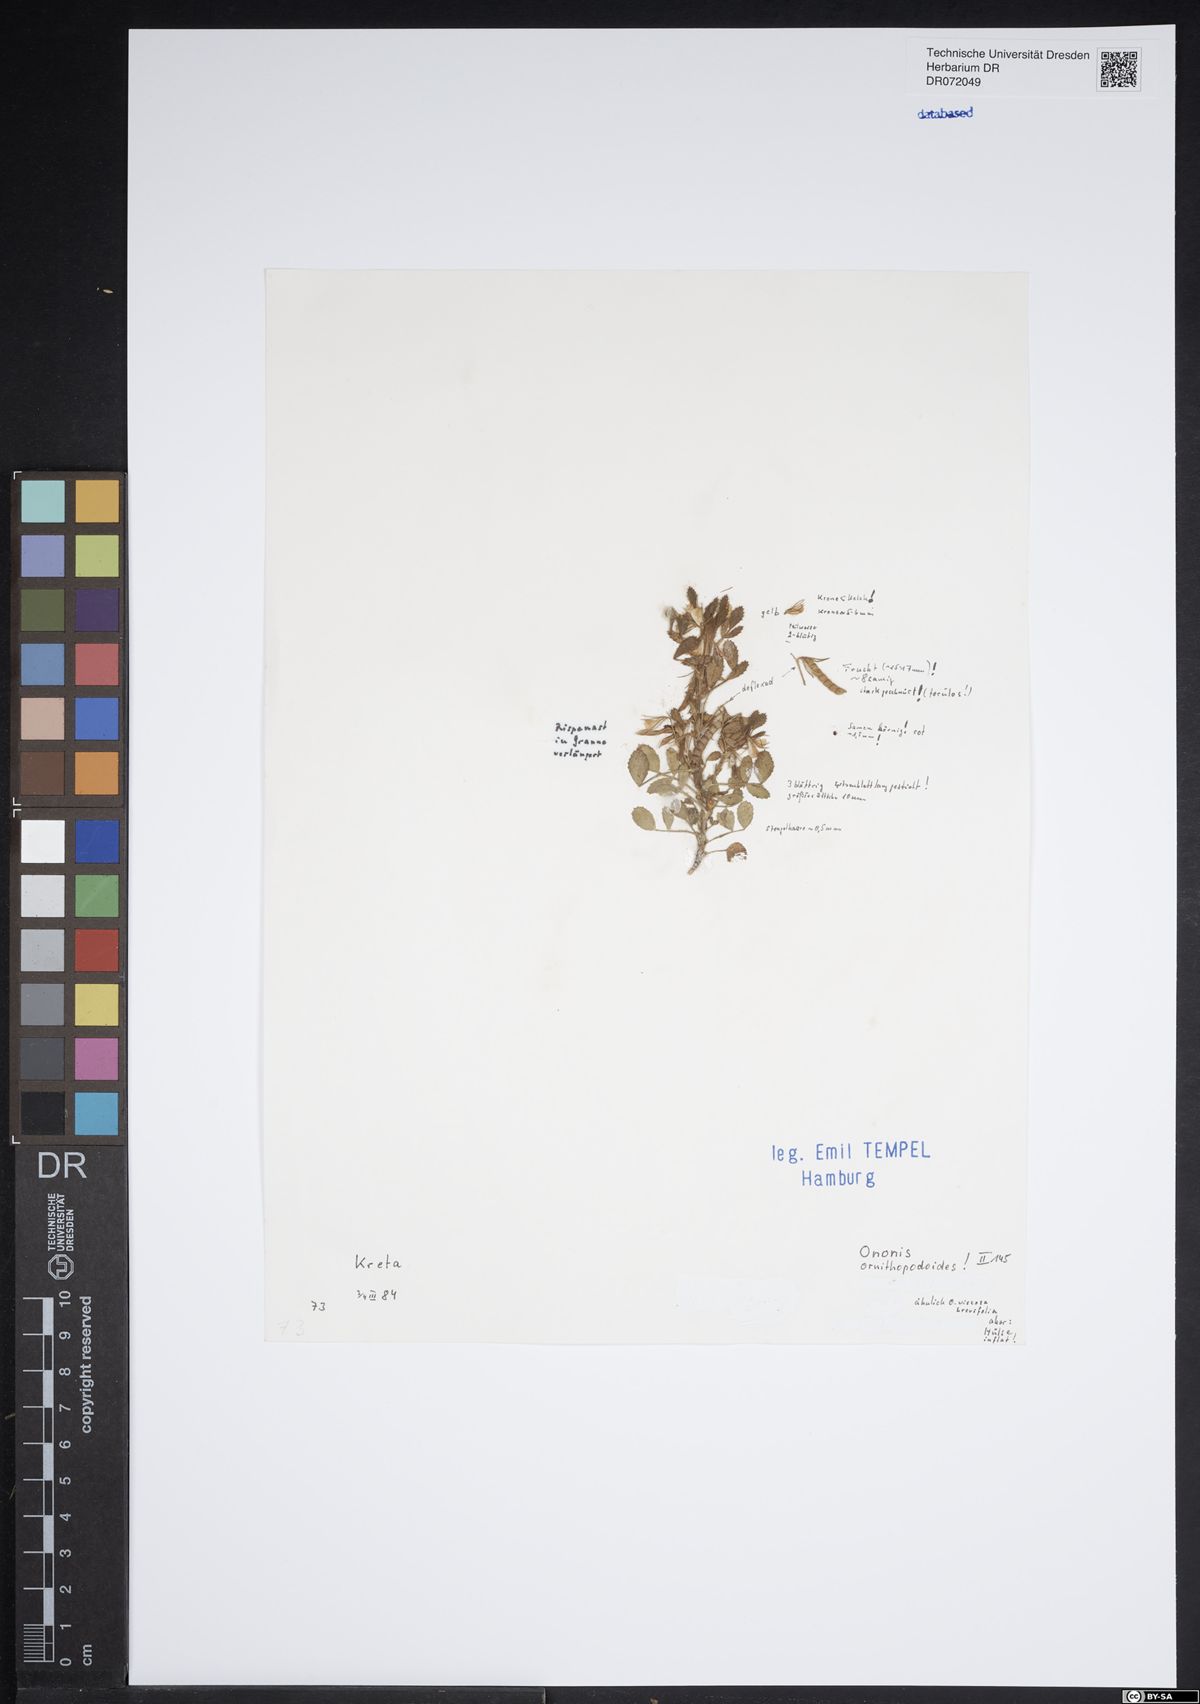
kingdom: Plantae
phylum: Tracheophyta
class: Magnoliopsida
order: Fabales
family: Fabaceae
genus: Ononis
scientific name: Ononis ornithopodioides
